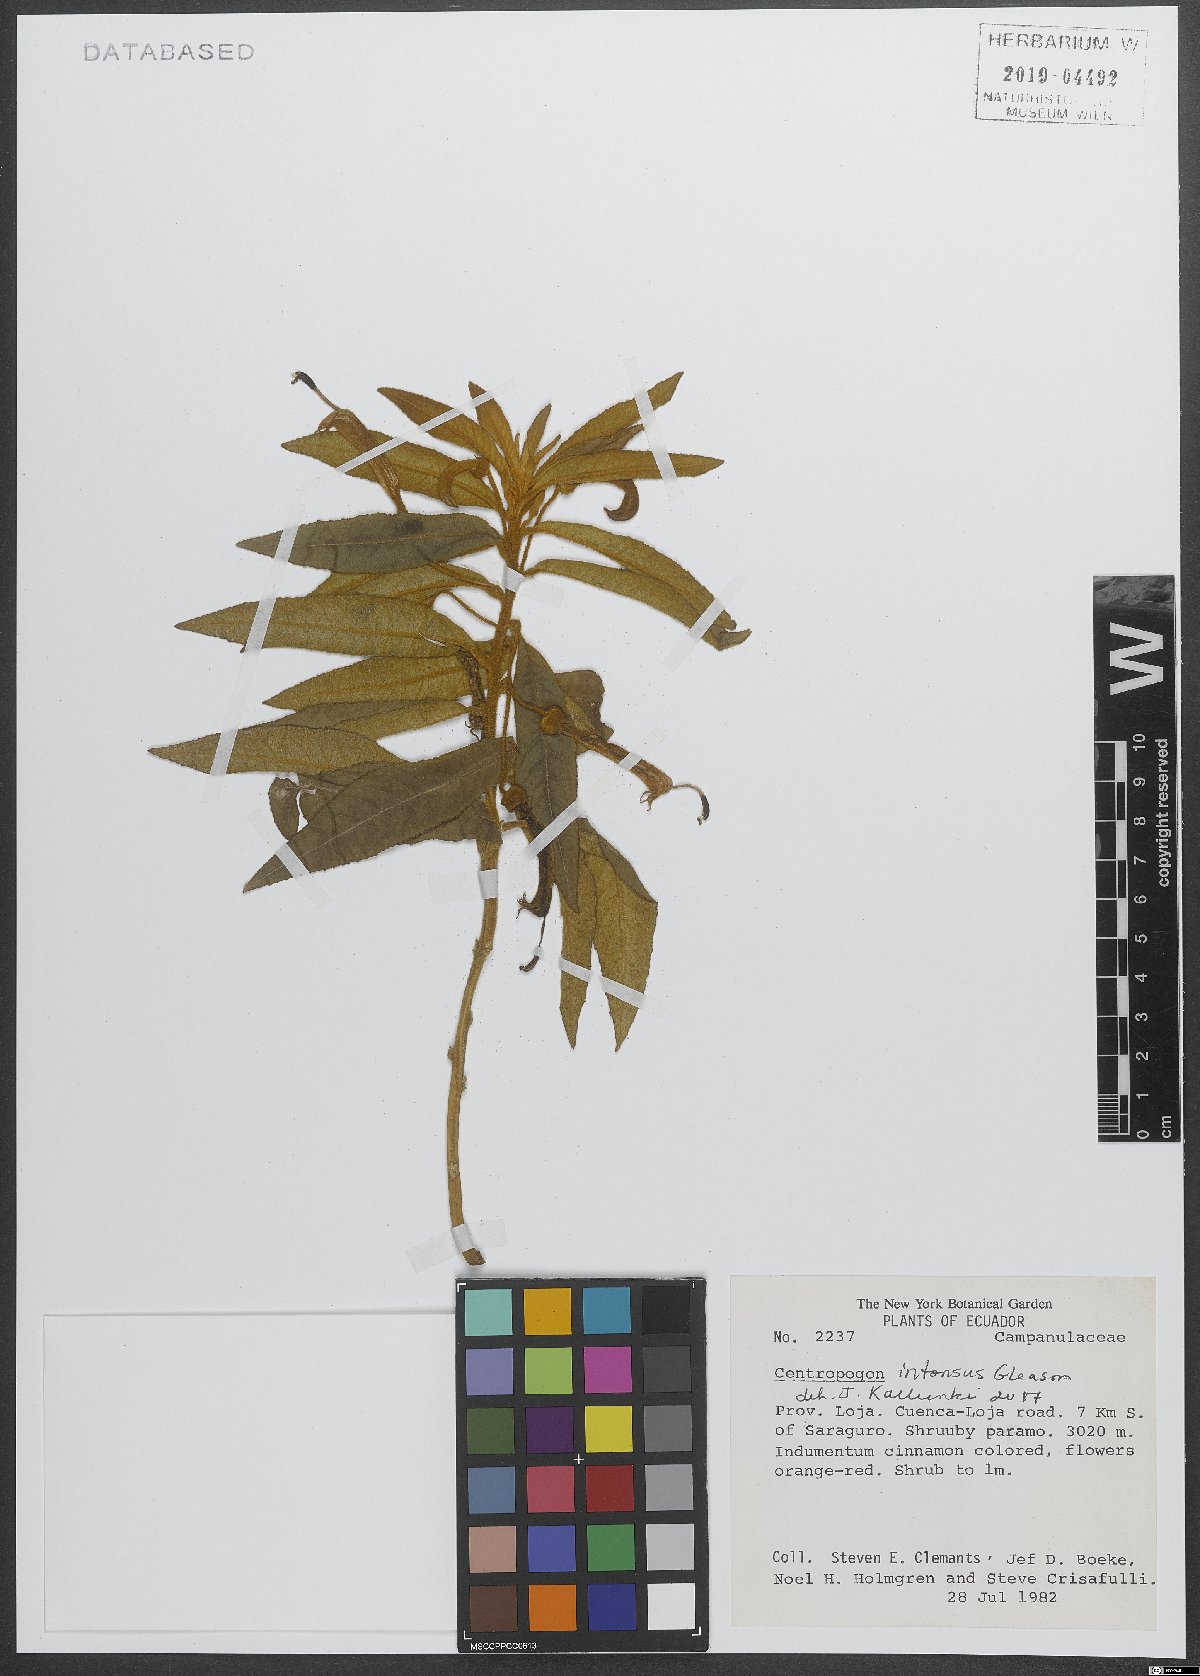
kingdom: Plantae
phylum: Tracheophyta
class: Magnoliopsida
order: Asterales
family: Campanulaceae
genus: Centropogon
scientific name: Centropogon intonsus
